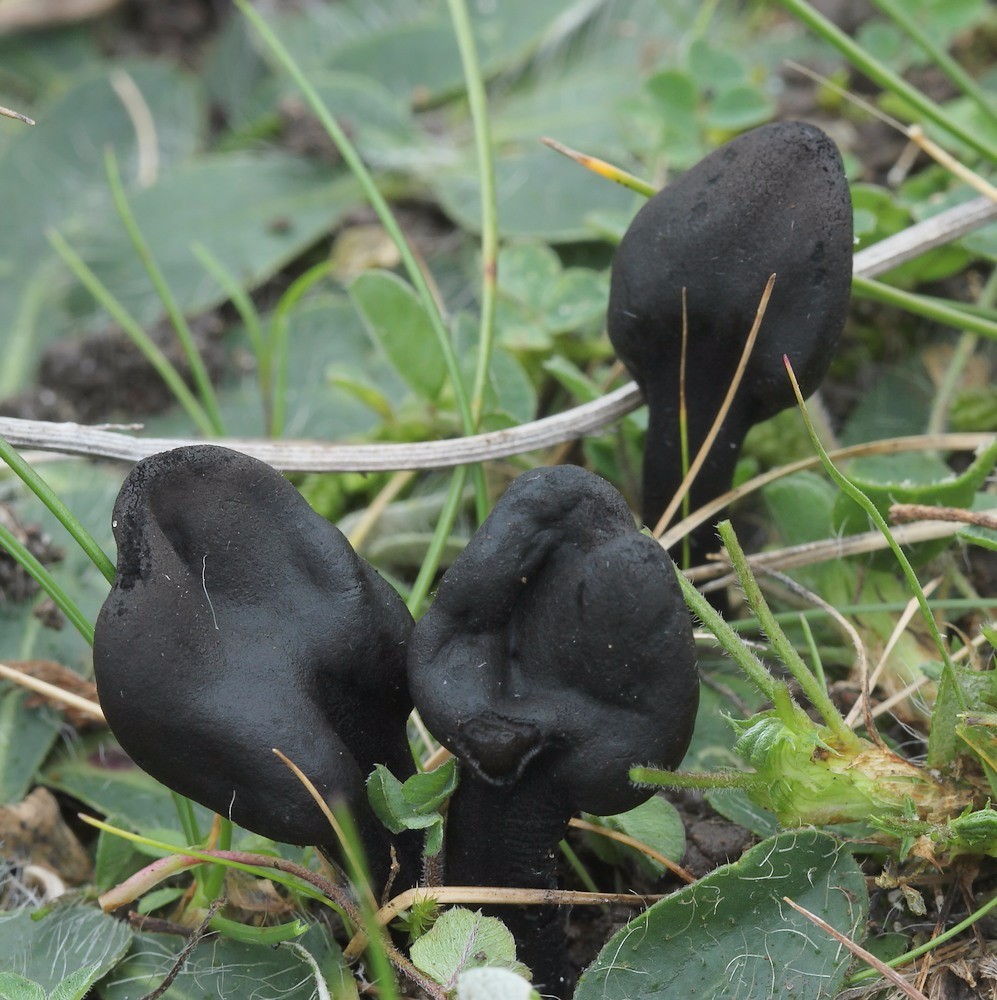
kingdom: Fungi
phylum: Ascomycota
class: Geoglossomycetes
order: Geoglossales
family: Geoglossaceae
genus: Trichoglossum
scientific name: Trichoglossum hirsutum
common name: håret jordtunge
